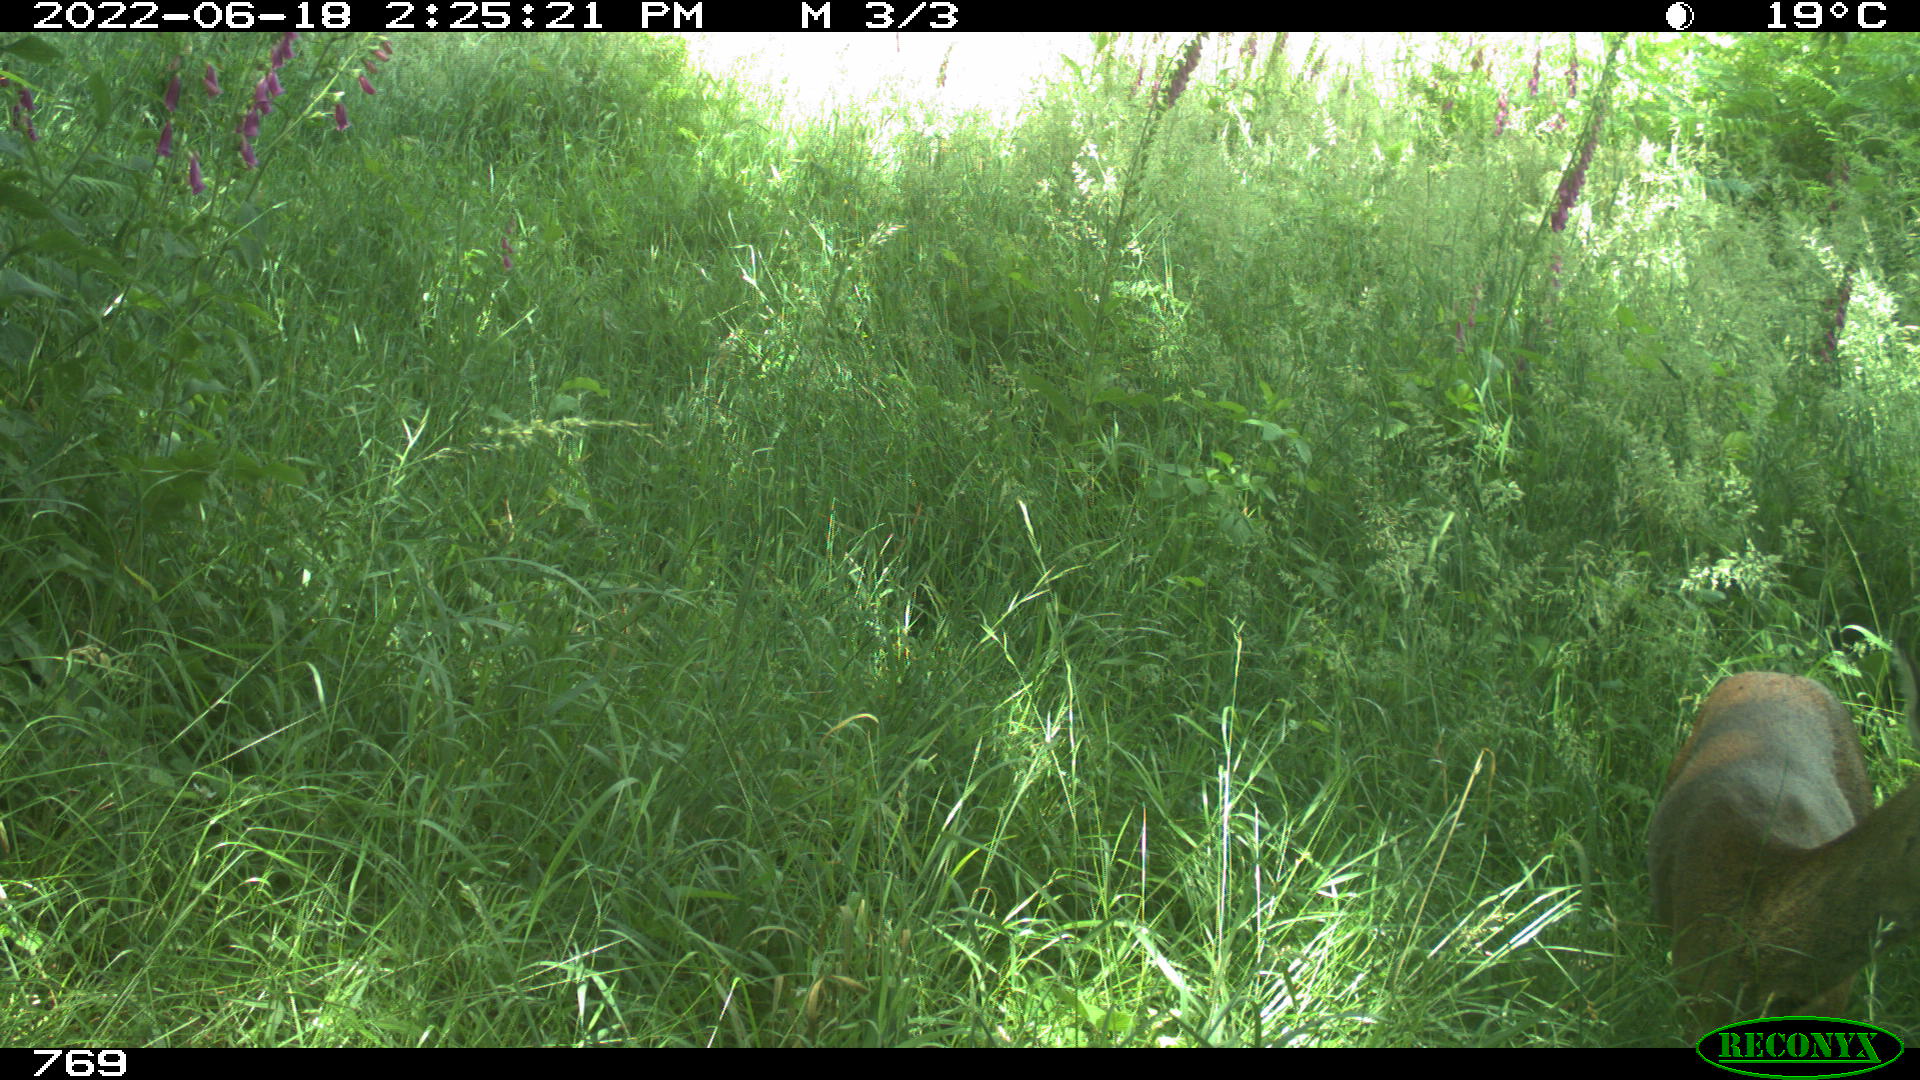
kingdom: Animalia
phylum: Chordata
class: Mammalia
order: Artiodactyla
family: Cervidae
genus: Capreolus
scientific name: Capreolus capreolus
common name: Western roe deer
